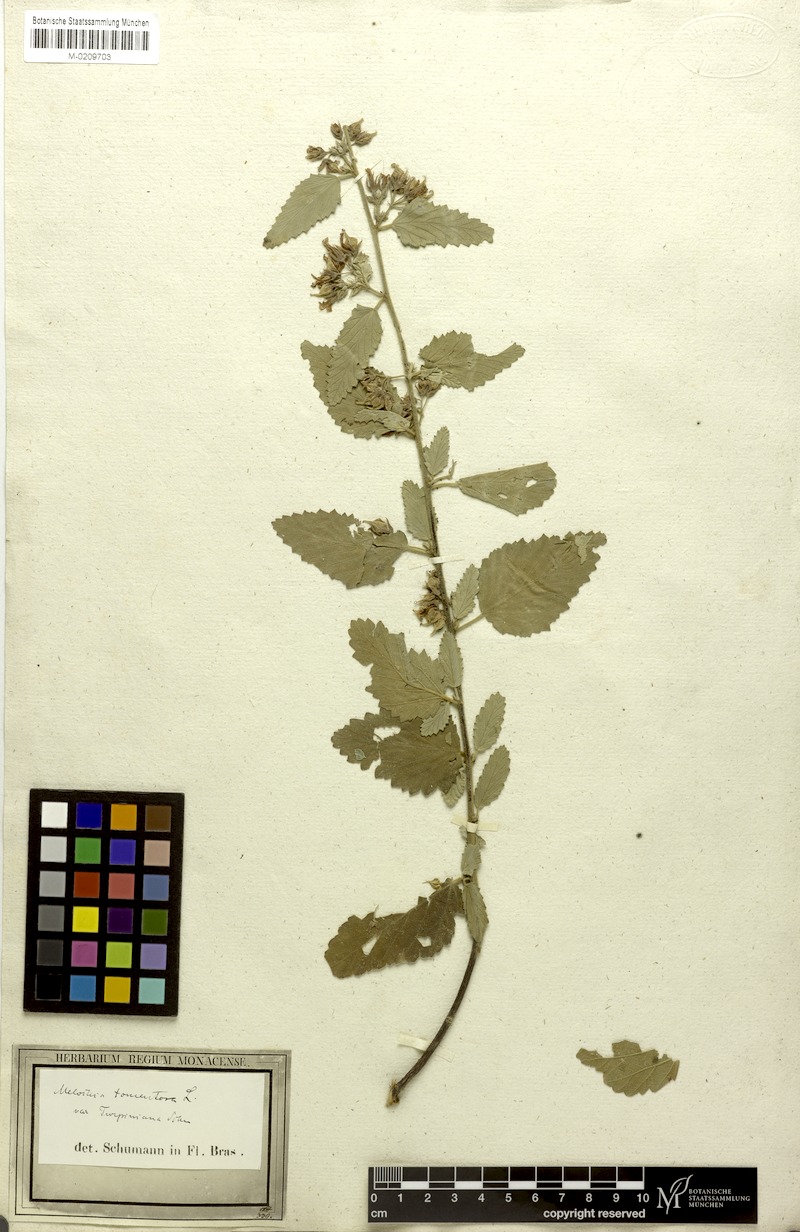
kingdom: Plantae
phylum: Tracheophyta
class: Magnoliopsida
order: Malvales
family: Malvaceae
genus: Melochia
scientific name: Melochia tomentosa
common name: Black torch
